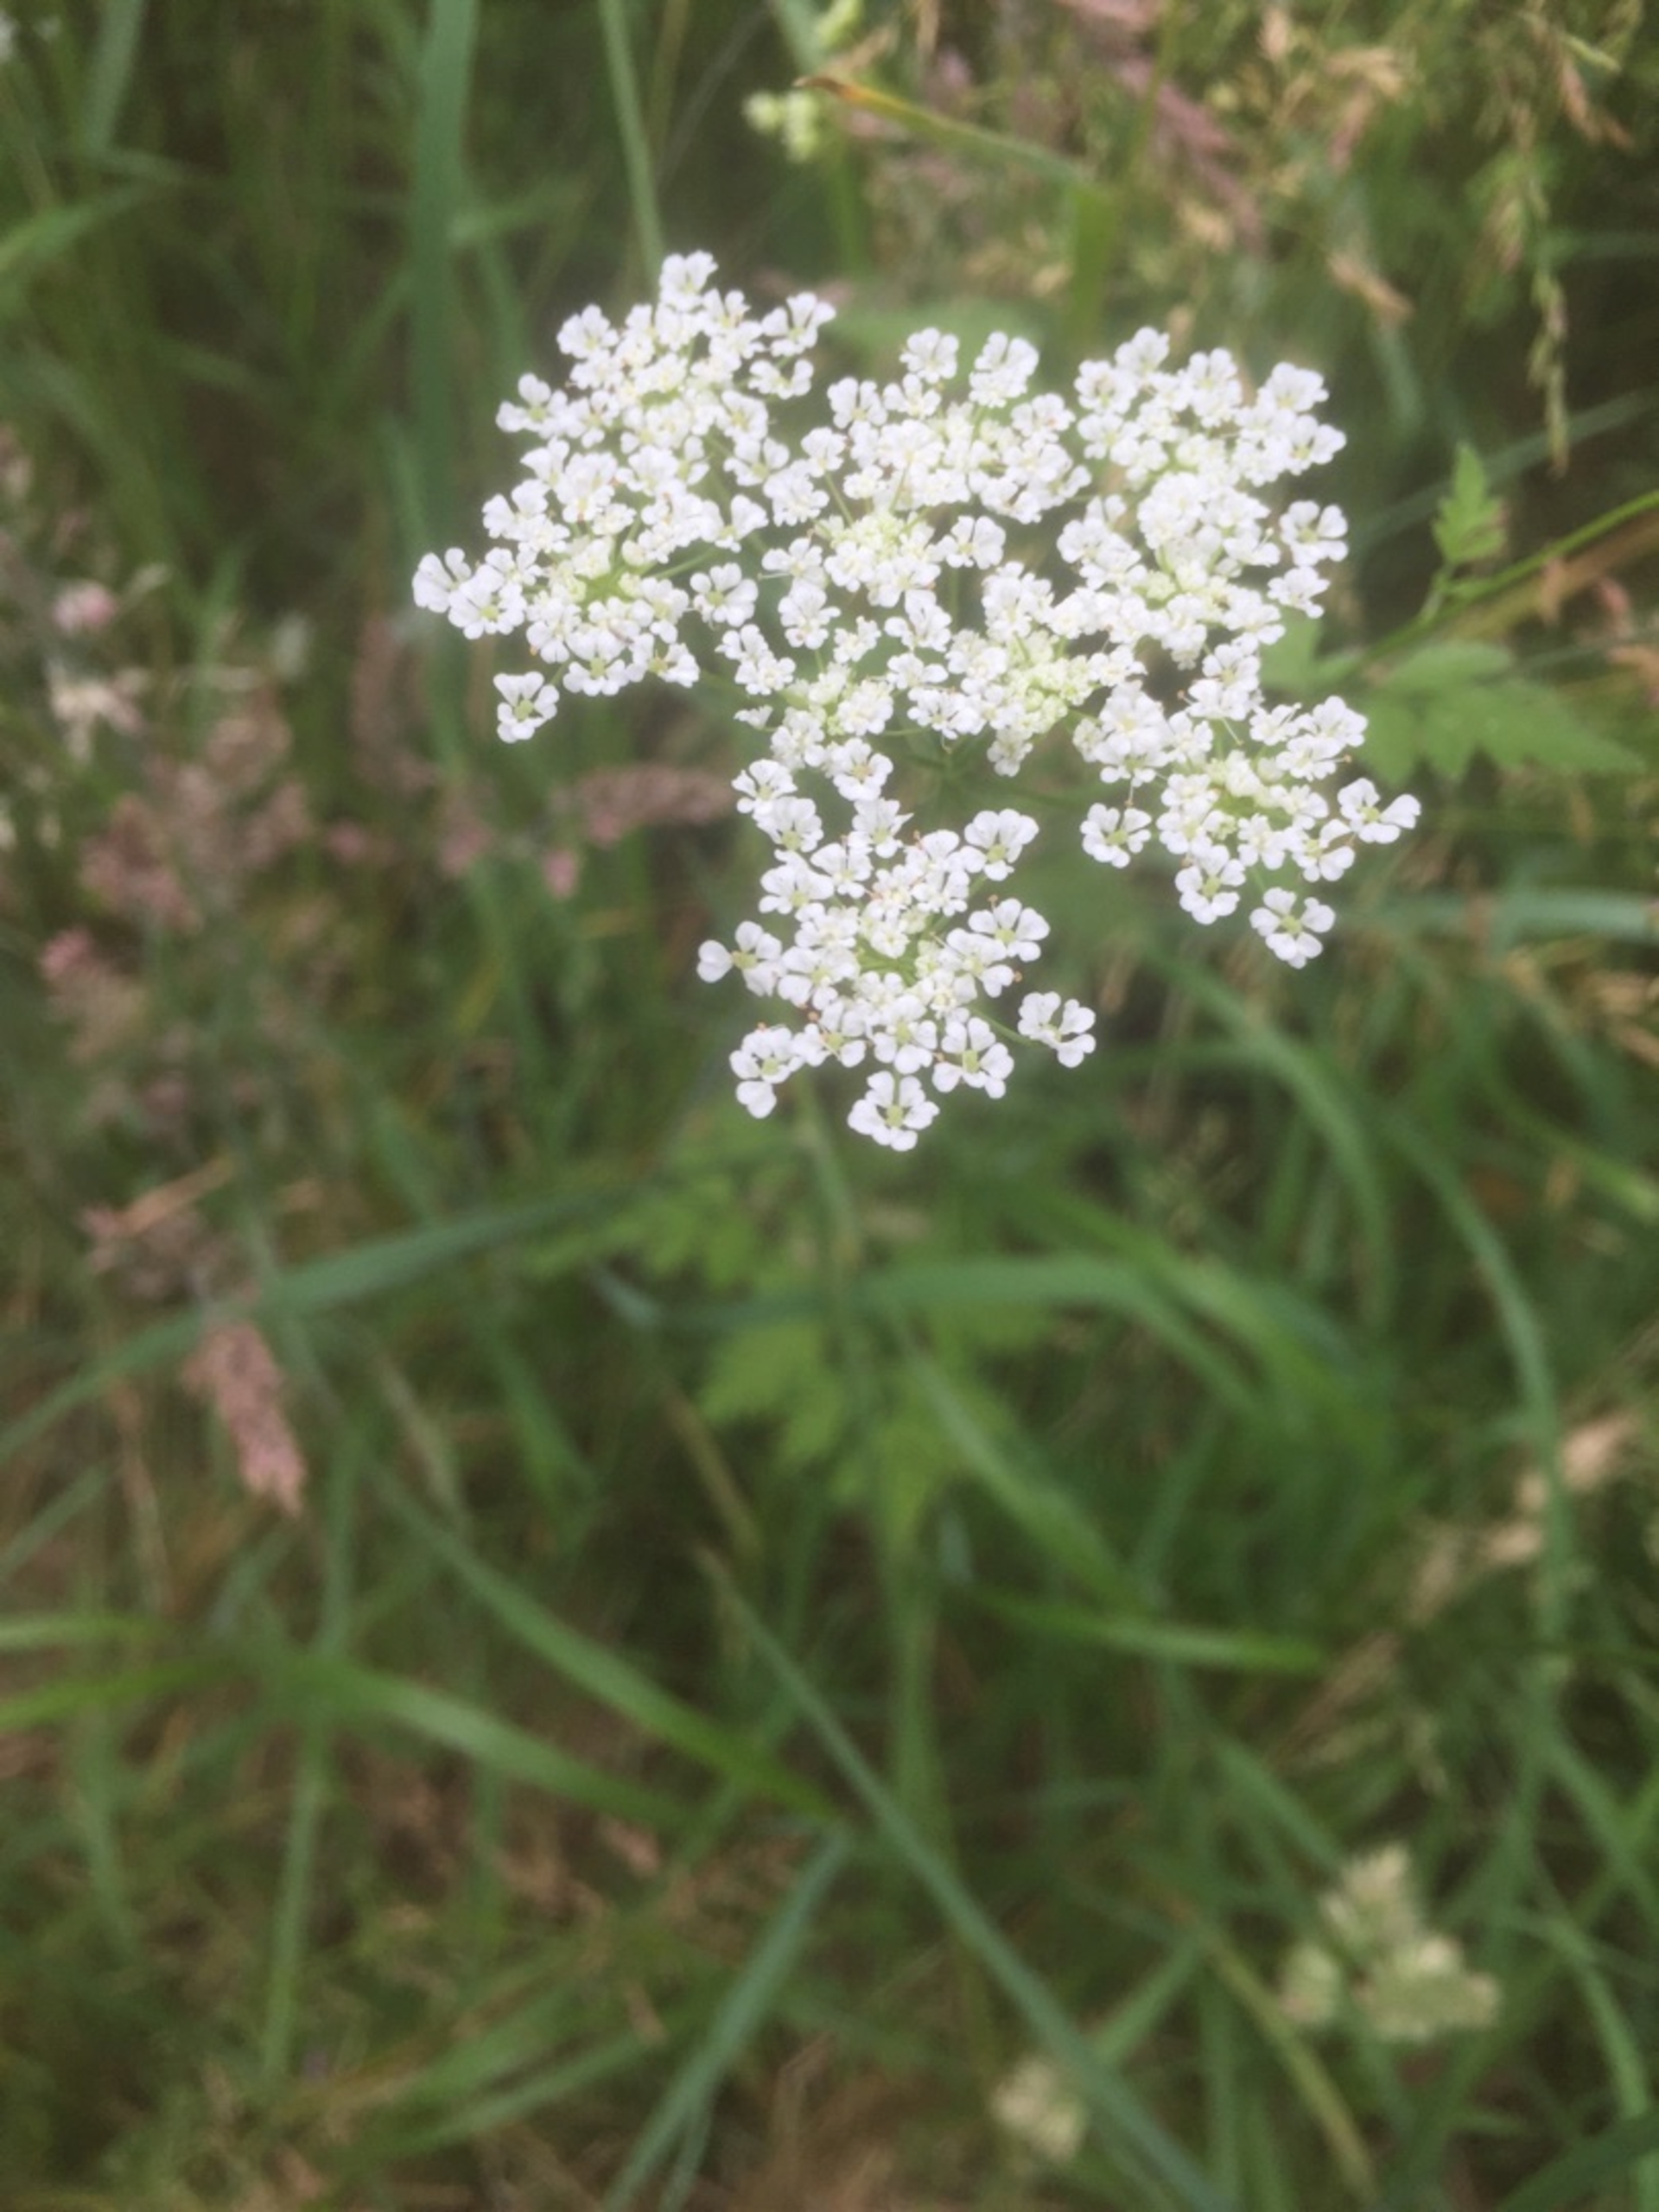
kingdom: Plantae
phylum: Tracheophyta
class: Magnoliopsida
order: Apiales
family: Apiaceae
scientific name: Apiaceae
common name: Skærmplantefamilien
